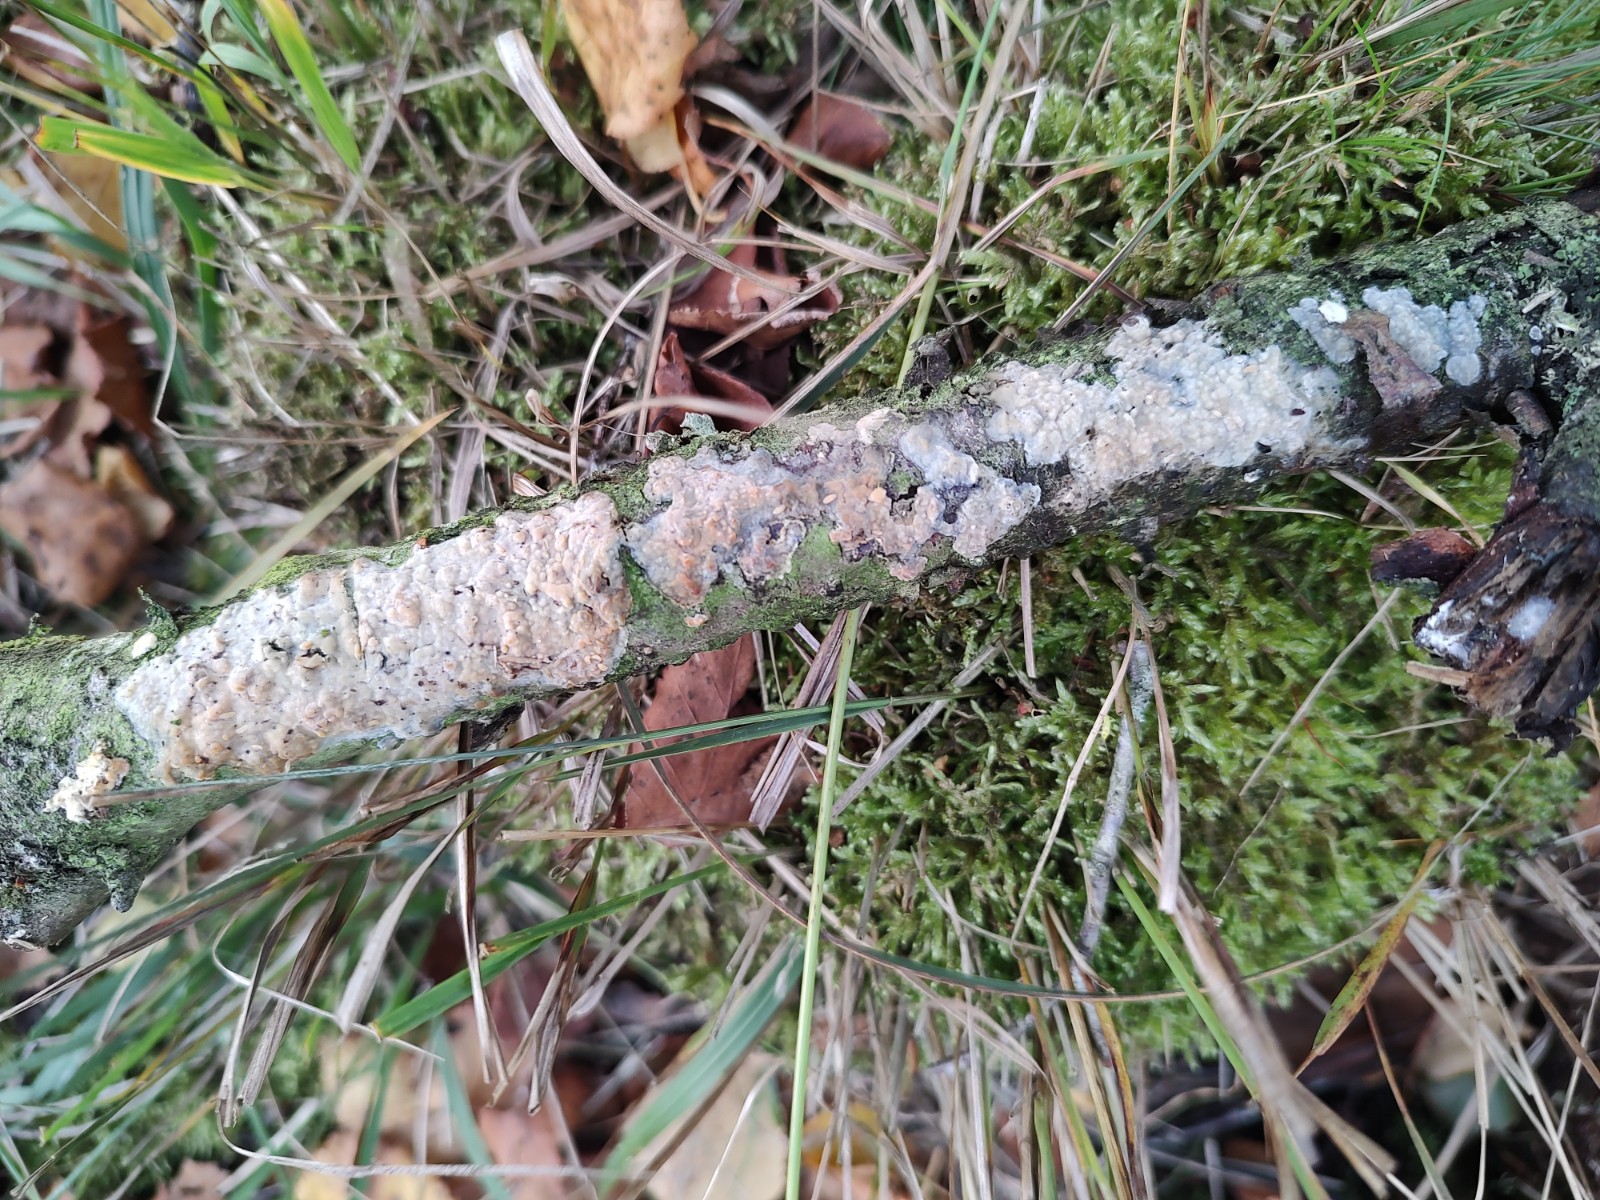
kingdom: Fungi
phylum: Basidiomycota
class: Agaricomycetes
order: Agaricales
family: Radulomycetaceae
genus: Radulomyces
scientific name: Radulomyces confluens
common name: glat naftalinskind
